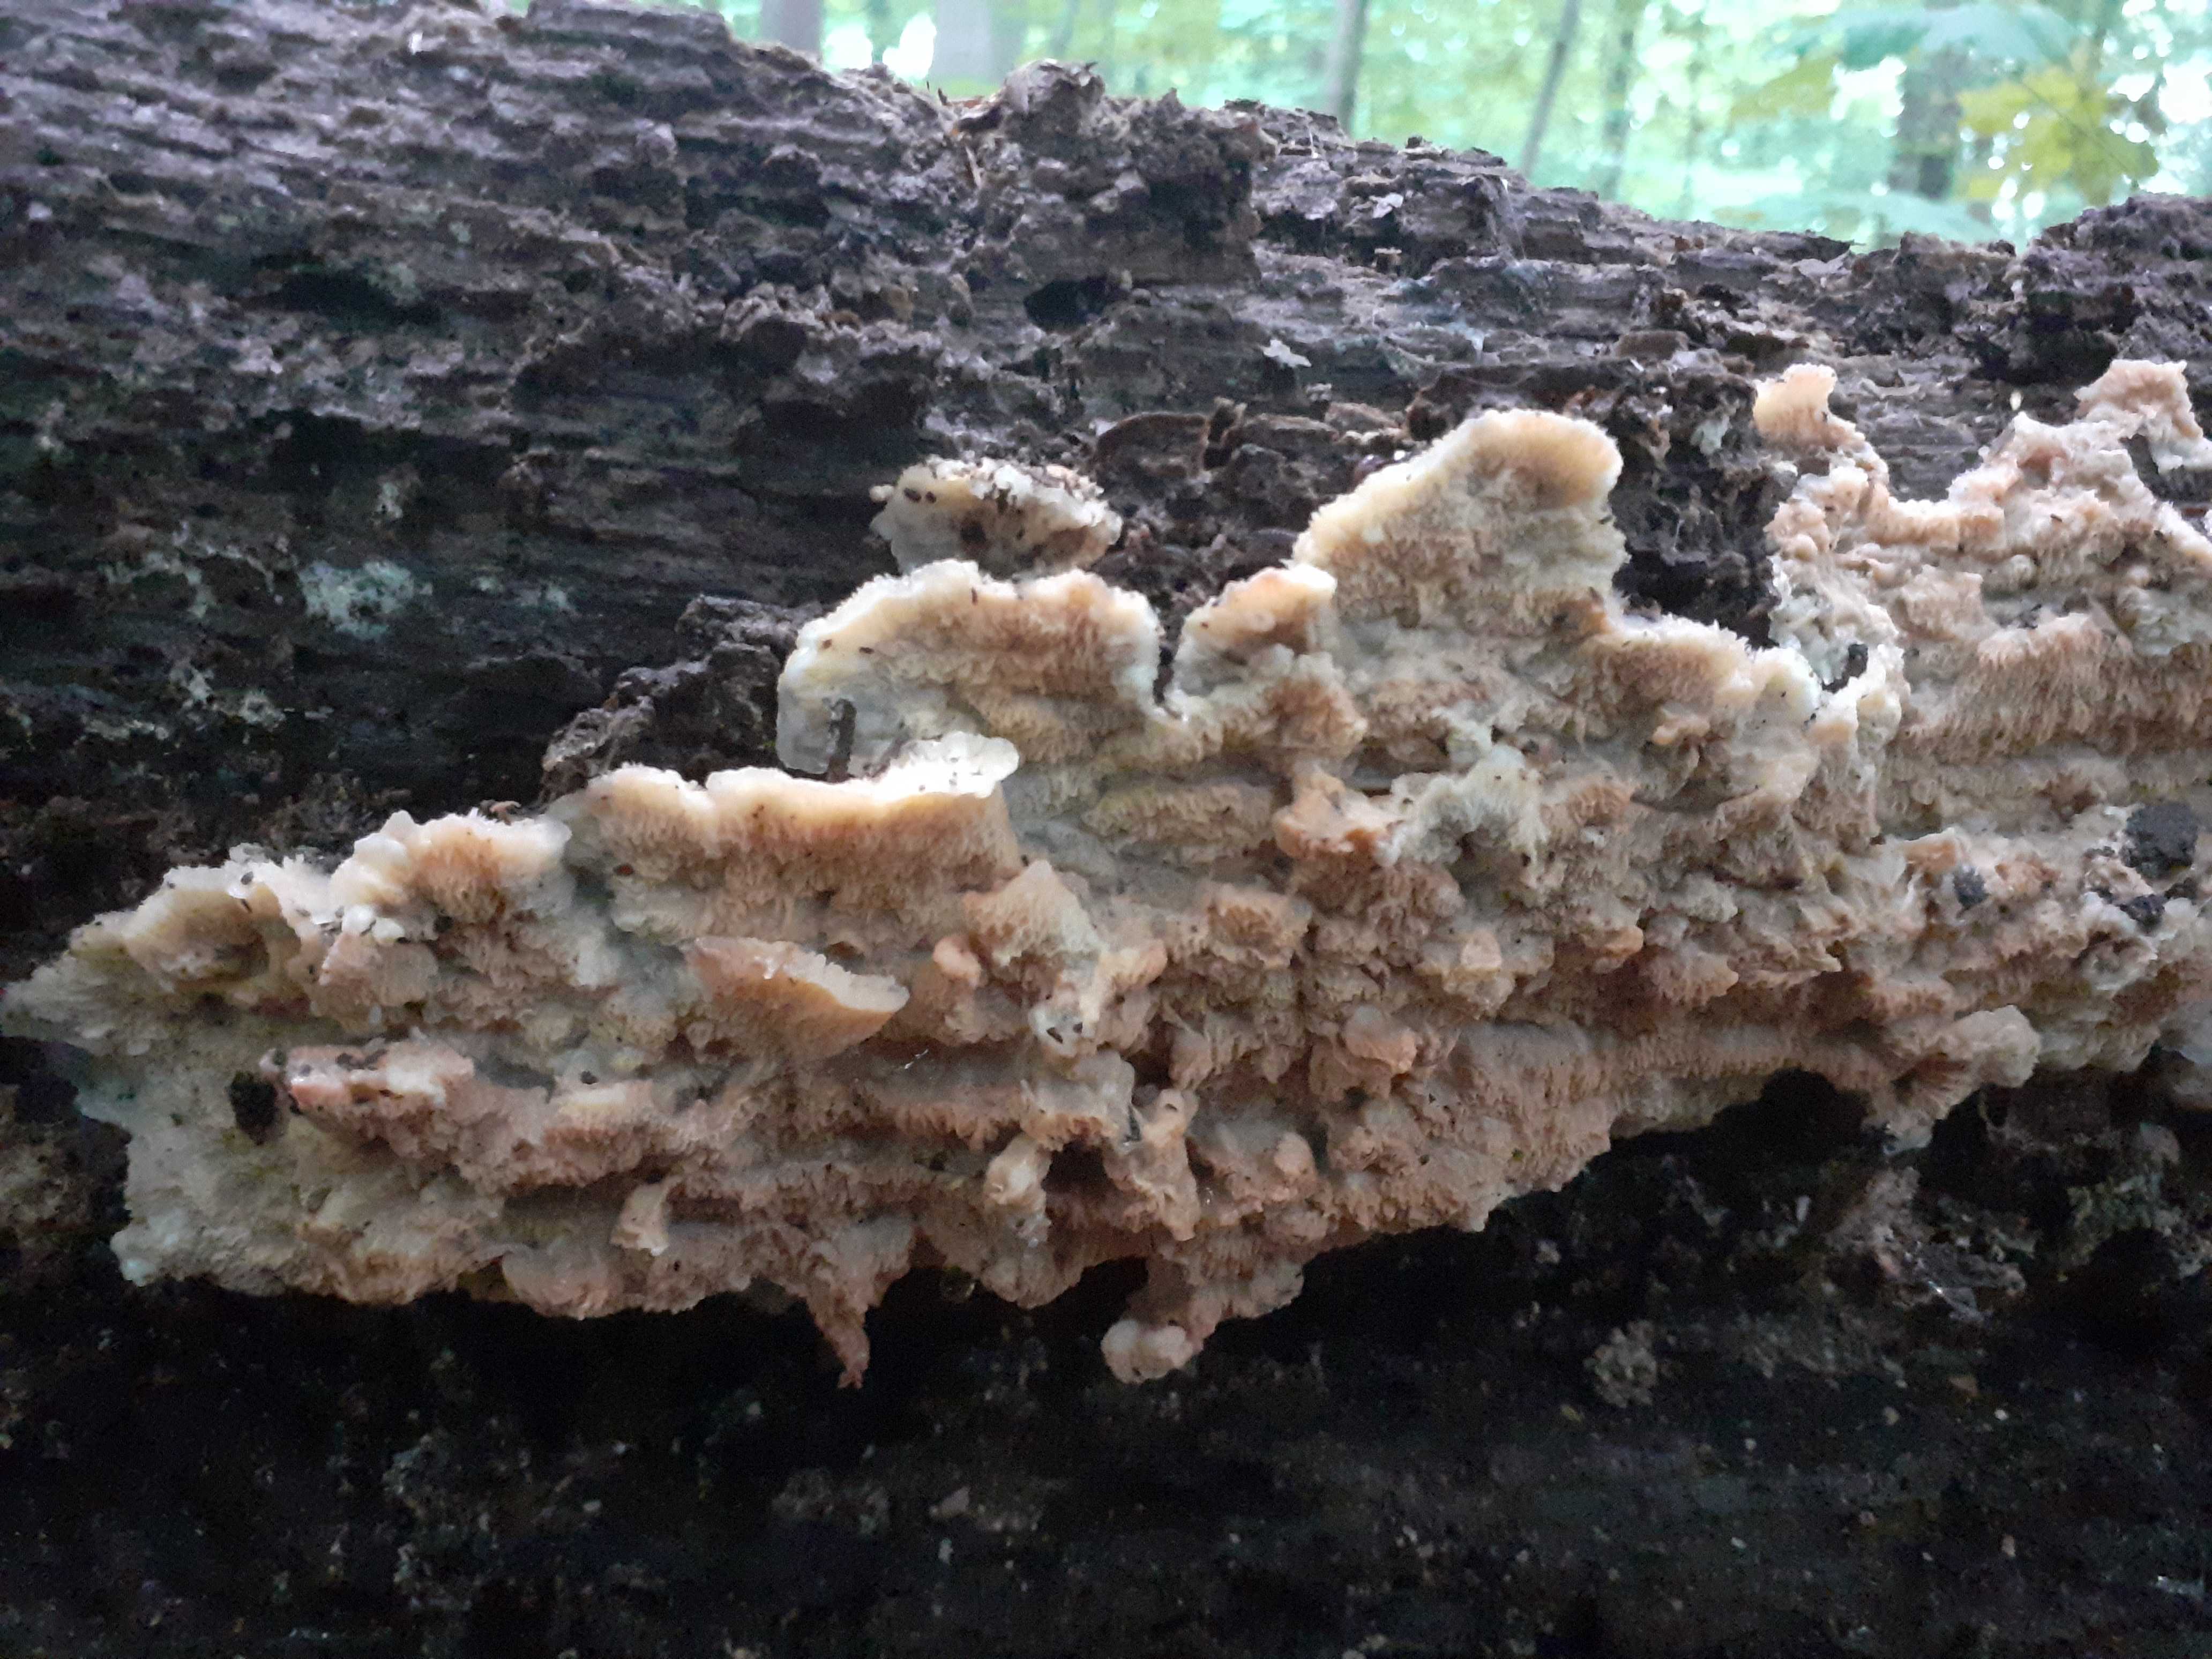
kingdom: Fungi
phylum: Basidiomycota
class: Agaricomycetes
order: Polyporales
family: Meruliaceae
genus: Phlebia
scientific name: Phlebia tremellosa
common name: bævrende åresvamp
